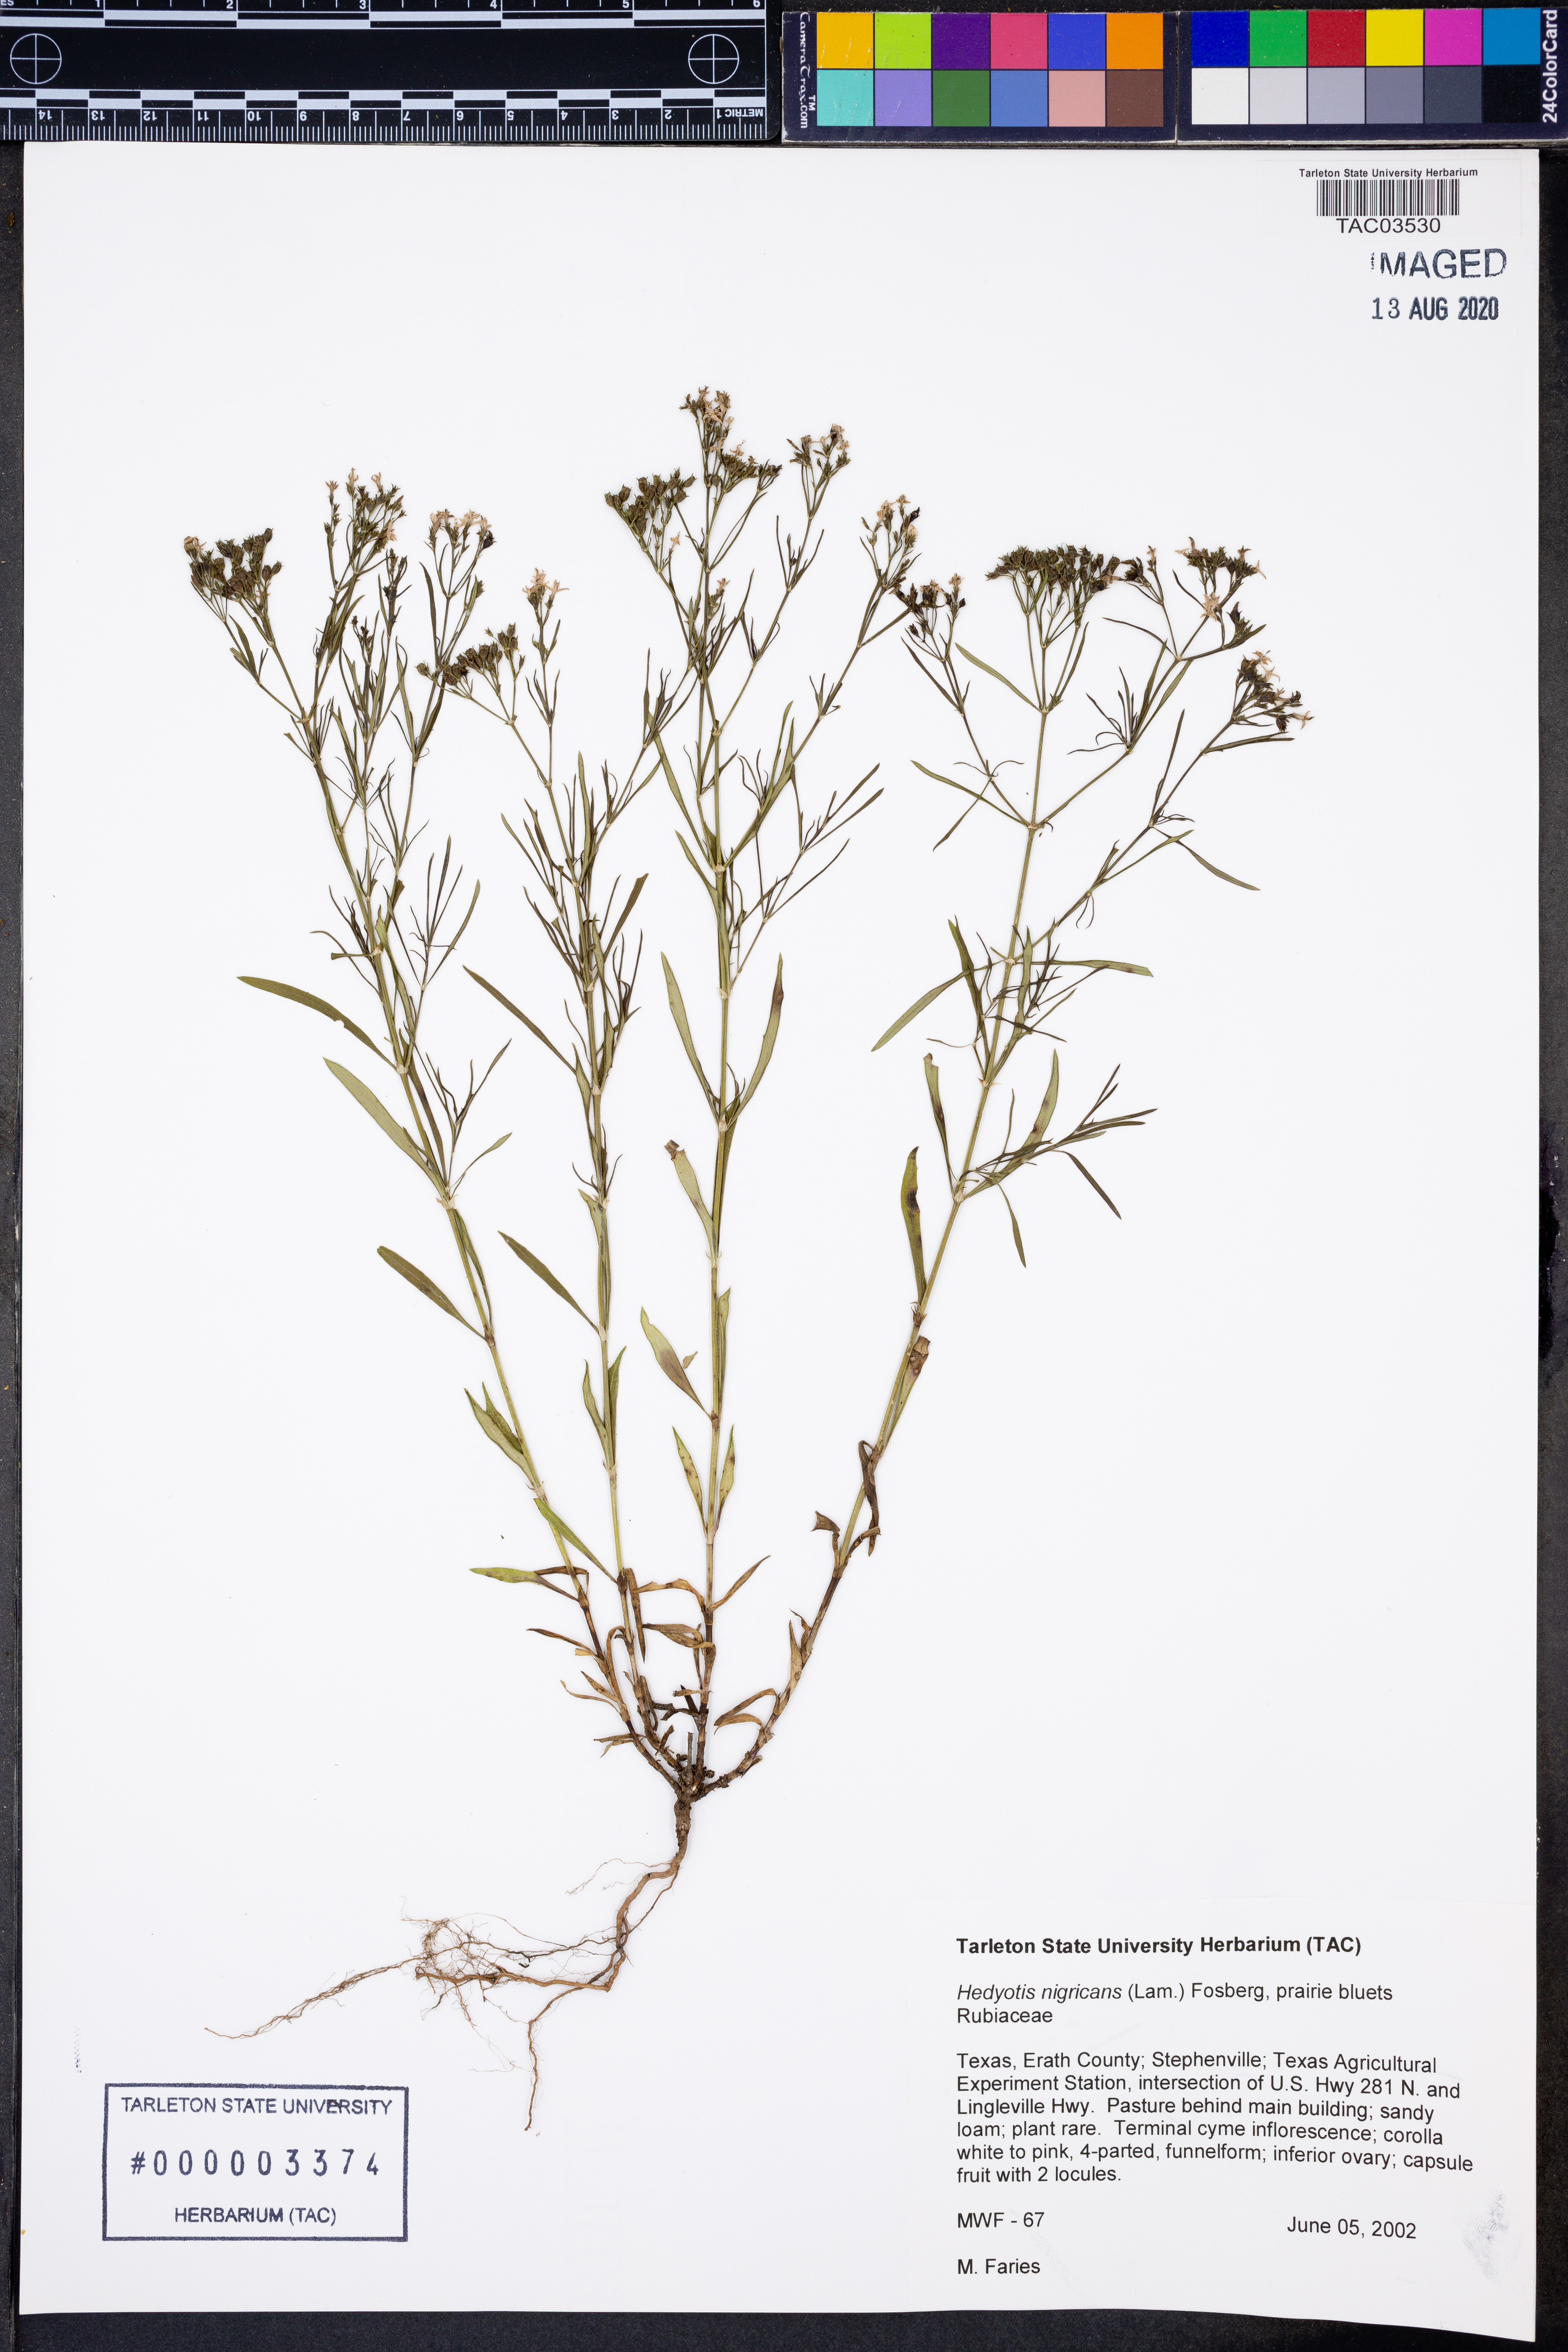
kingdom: Plantae
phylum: Tracheophyta
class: Magnoliopsida
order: Gentianales
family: Rubiaceae
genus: Stenaria
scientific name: Stenaria nigricans
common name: Diamondflowers
